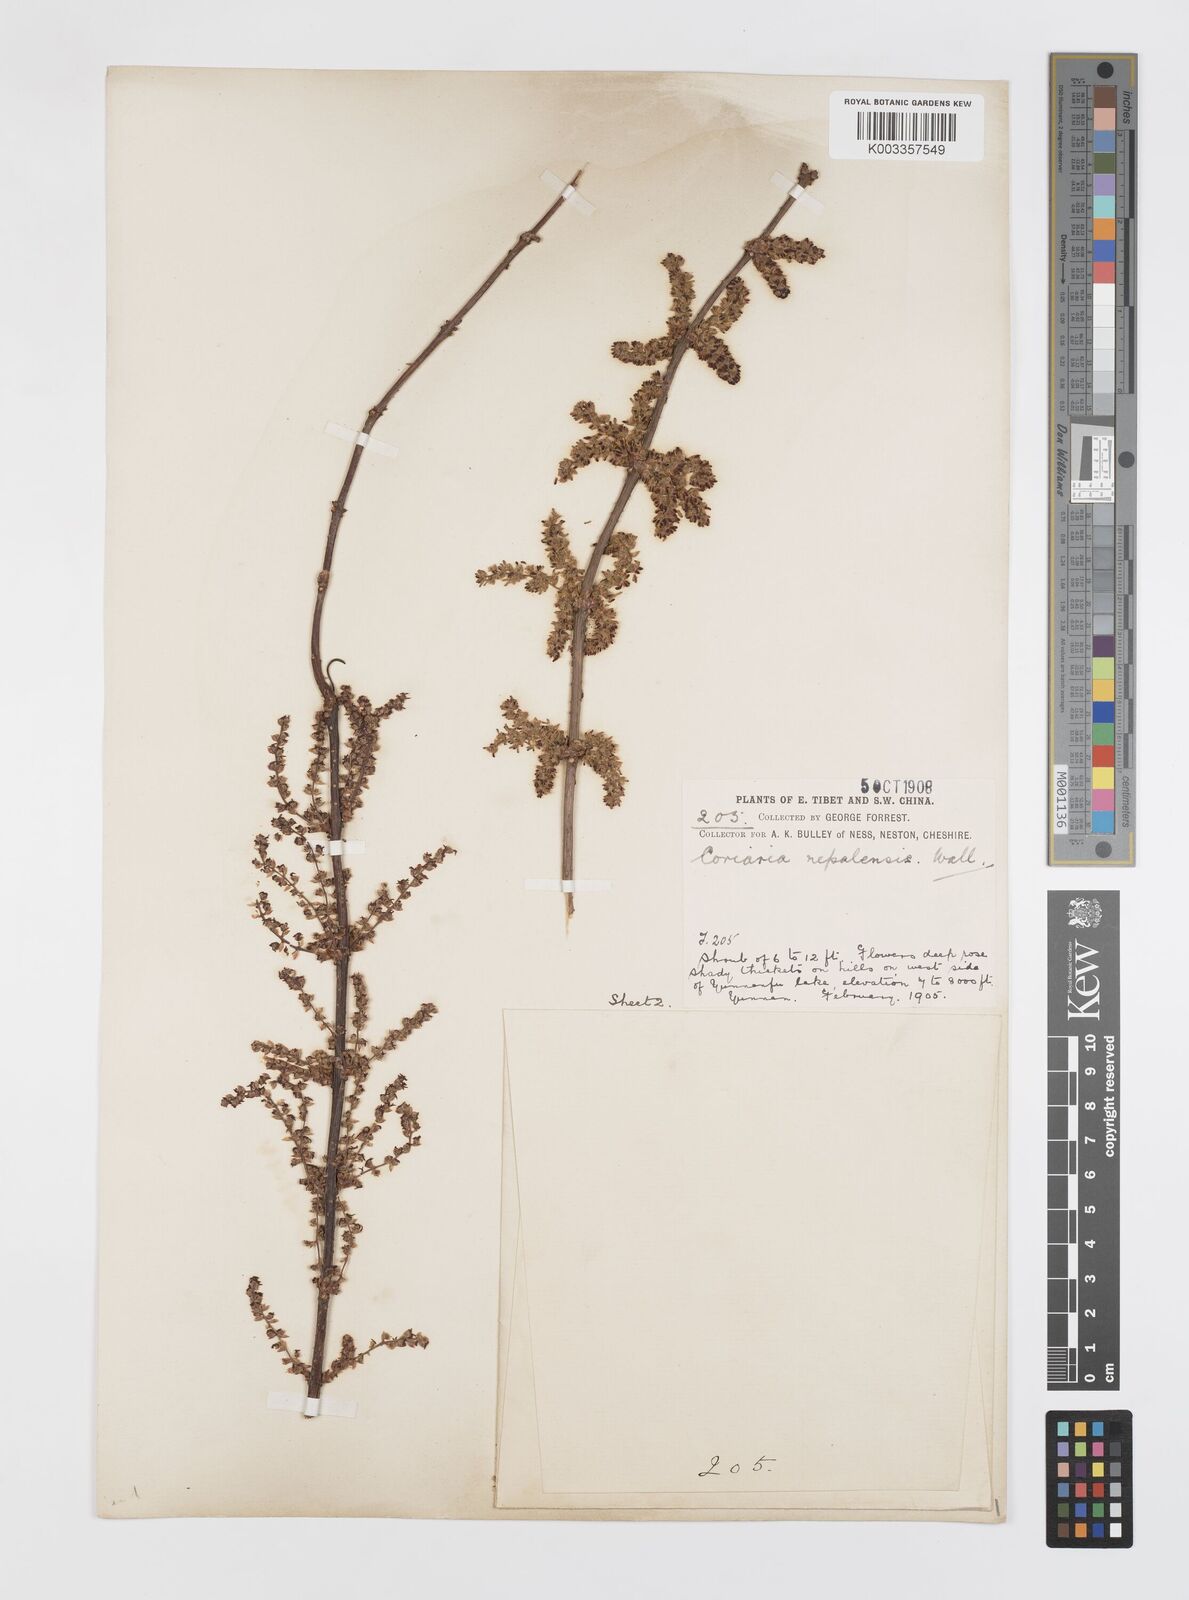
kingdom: Plantae
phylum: Tracheophyta
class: Magnoliopsida
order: Cucurbitales
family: Coriariaceae
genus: Coriaria
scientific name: Coriaria napalensis
